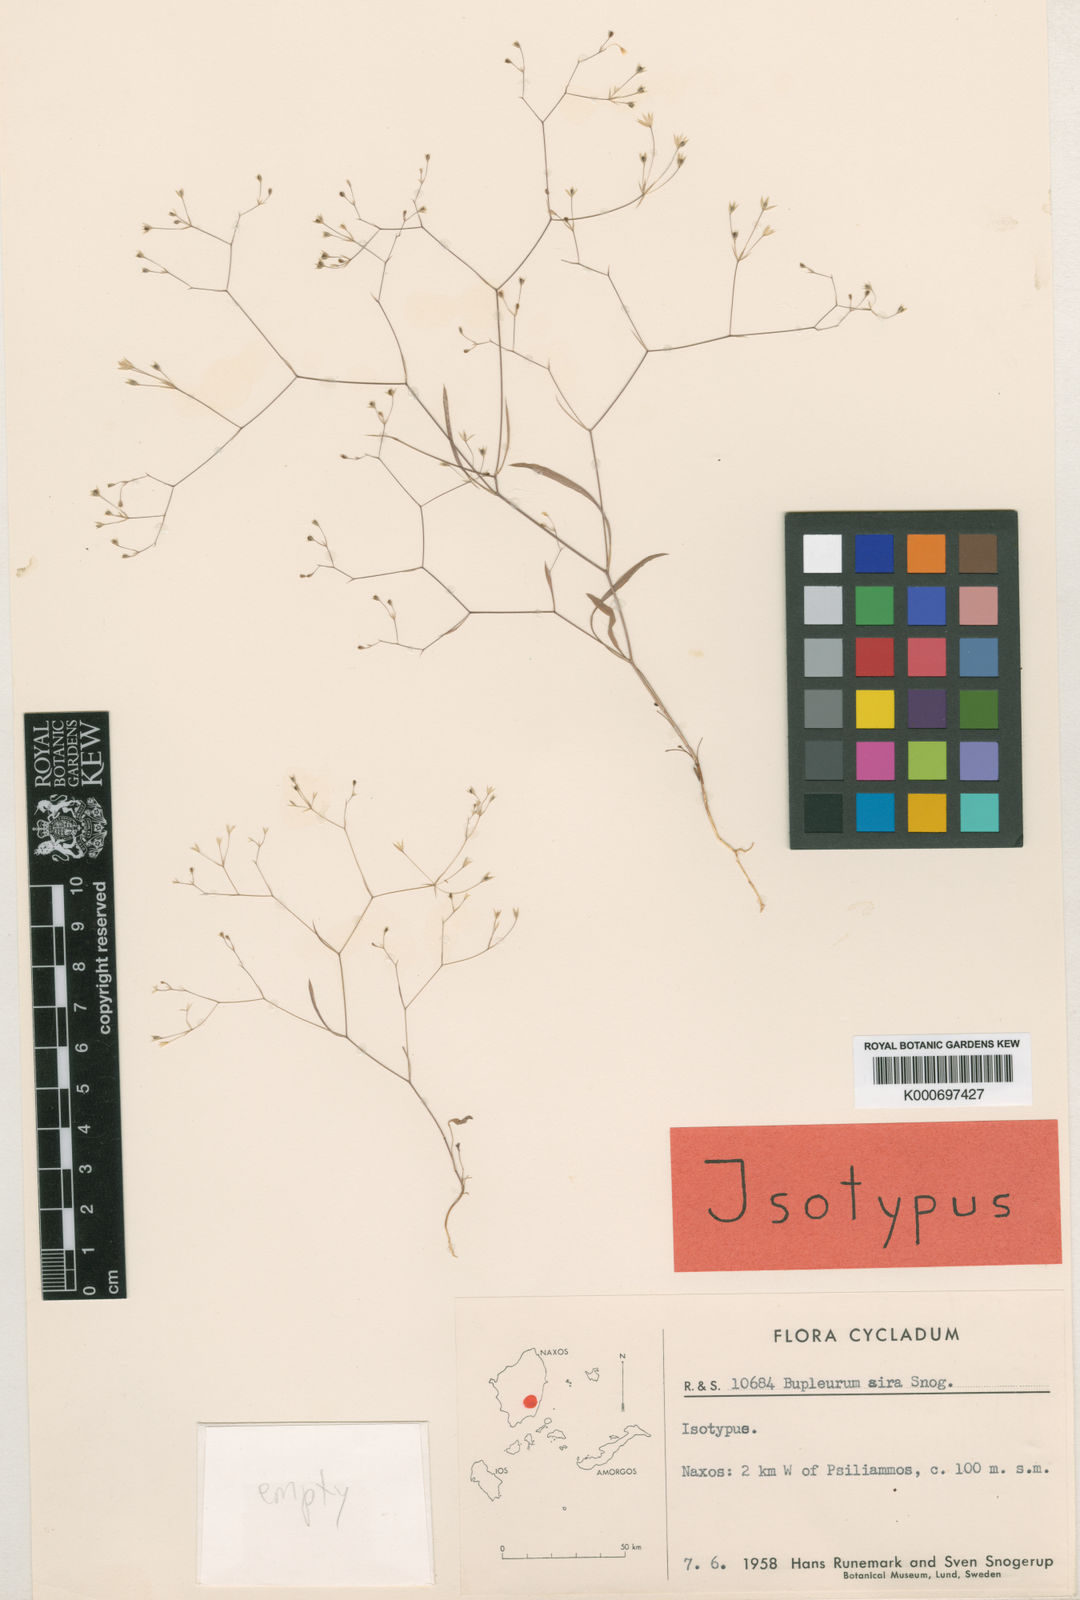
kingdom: Plantae
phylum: Tracheophyta
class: Magnoliopsida
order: Apiales
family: Apiaceae
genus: Bupleurum
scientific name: Bupleurum aira
